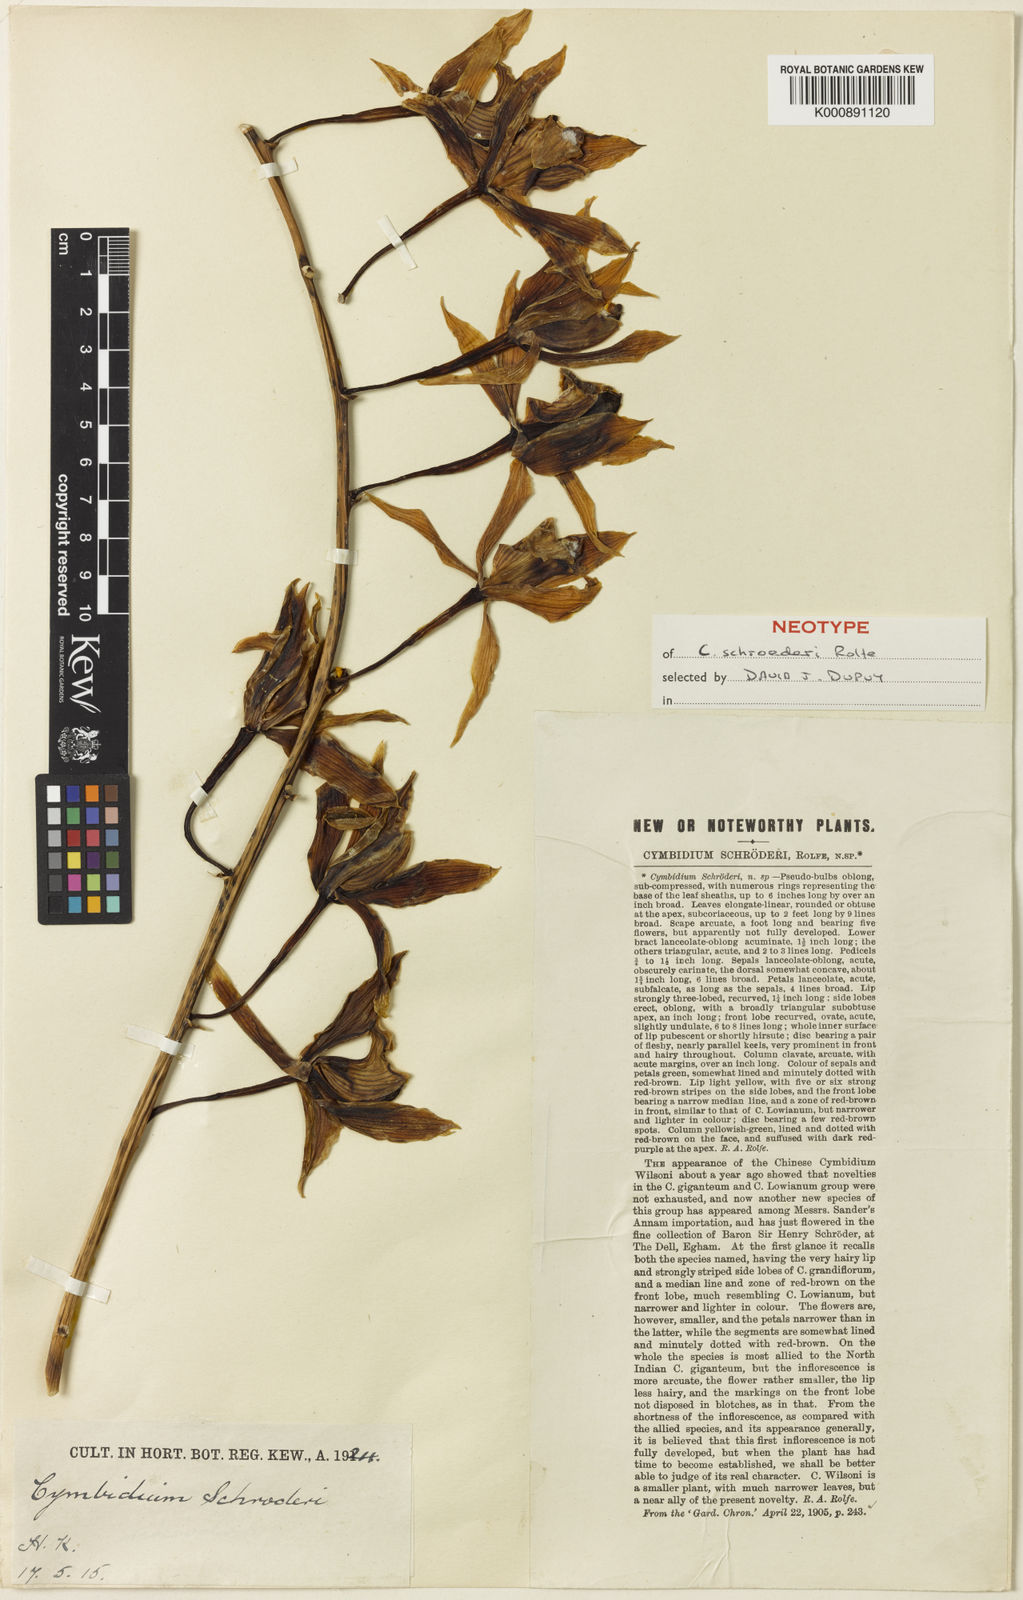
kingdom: Plantae
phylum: Tracheophyta
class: Liliopsida
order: Asparagales
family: Orchidaceae
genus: Cymbidium
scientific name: Cymbidium schroederi
